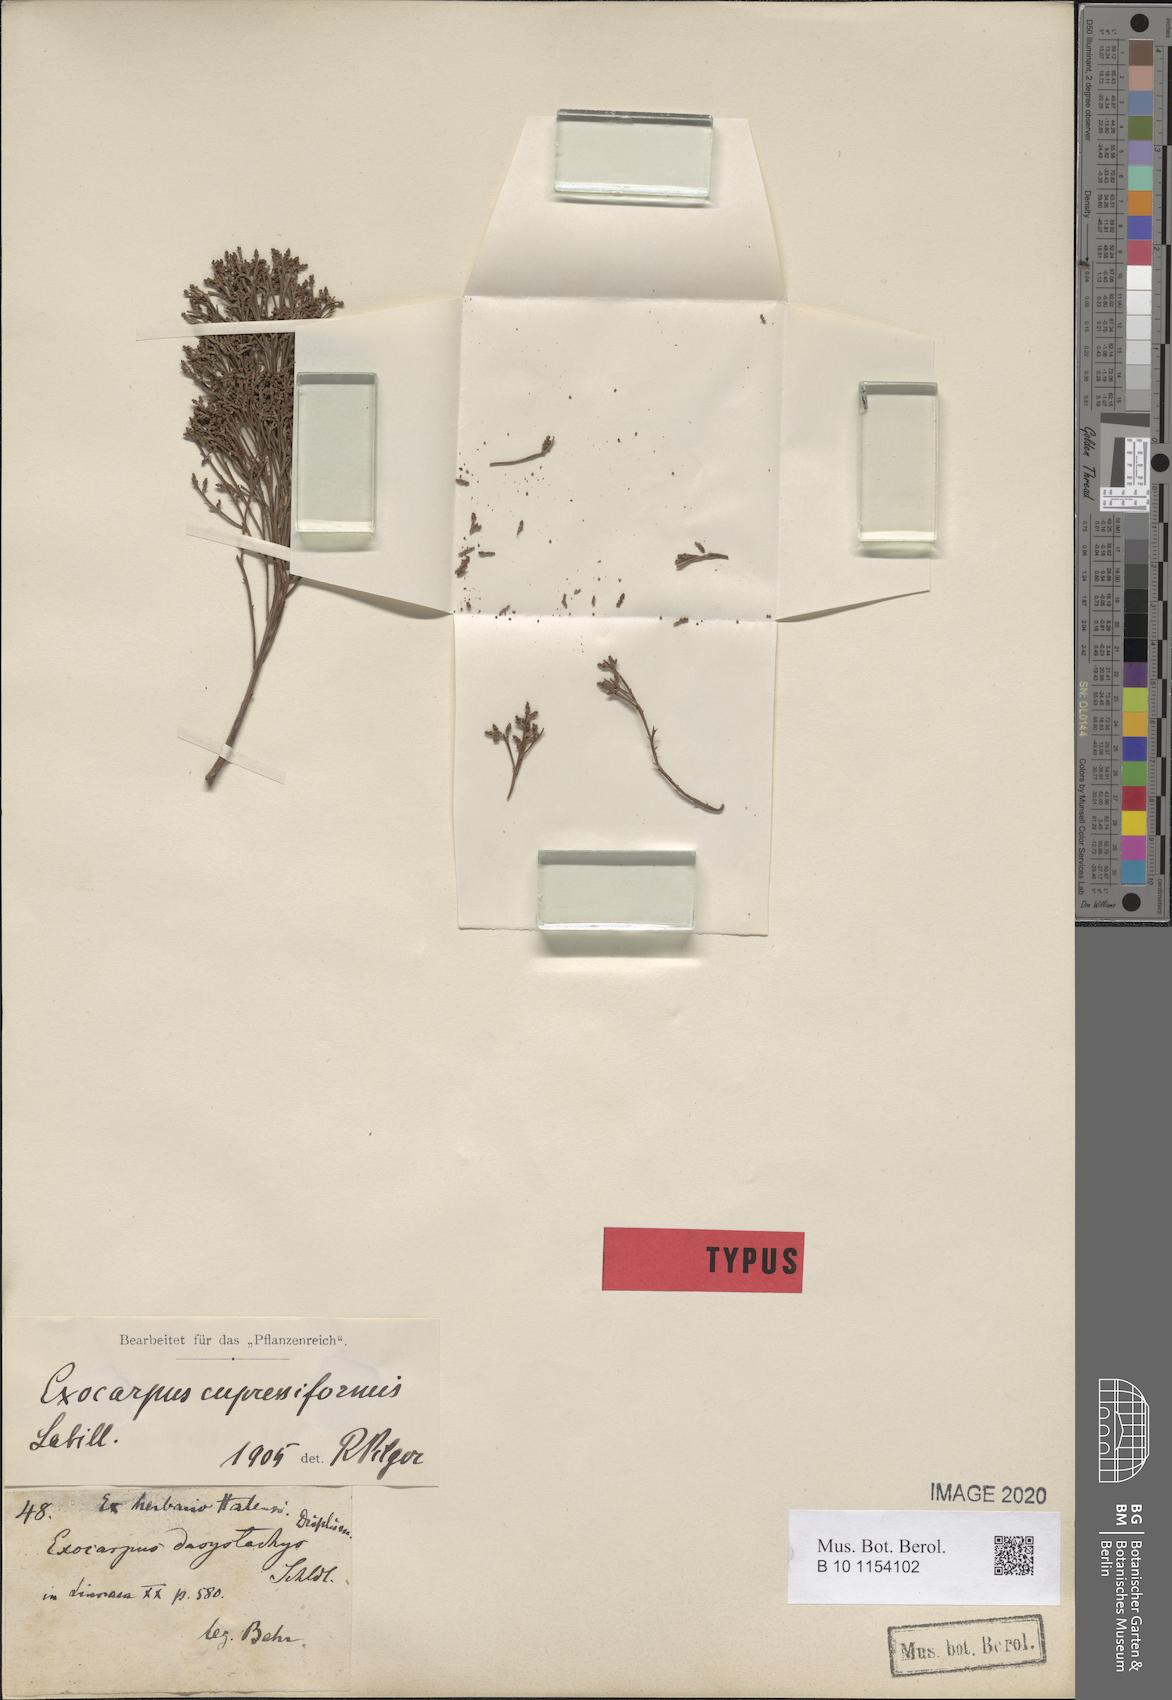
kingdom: Plantae
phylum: Tracheophyta
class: Magnoliopsida
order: Santalales
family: Santalaceae
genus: Exocarpos
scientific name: Exocarpos cupressiformis
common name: Cherry ballart
